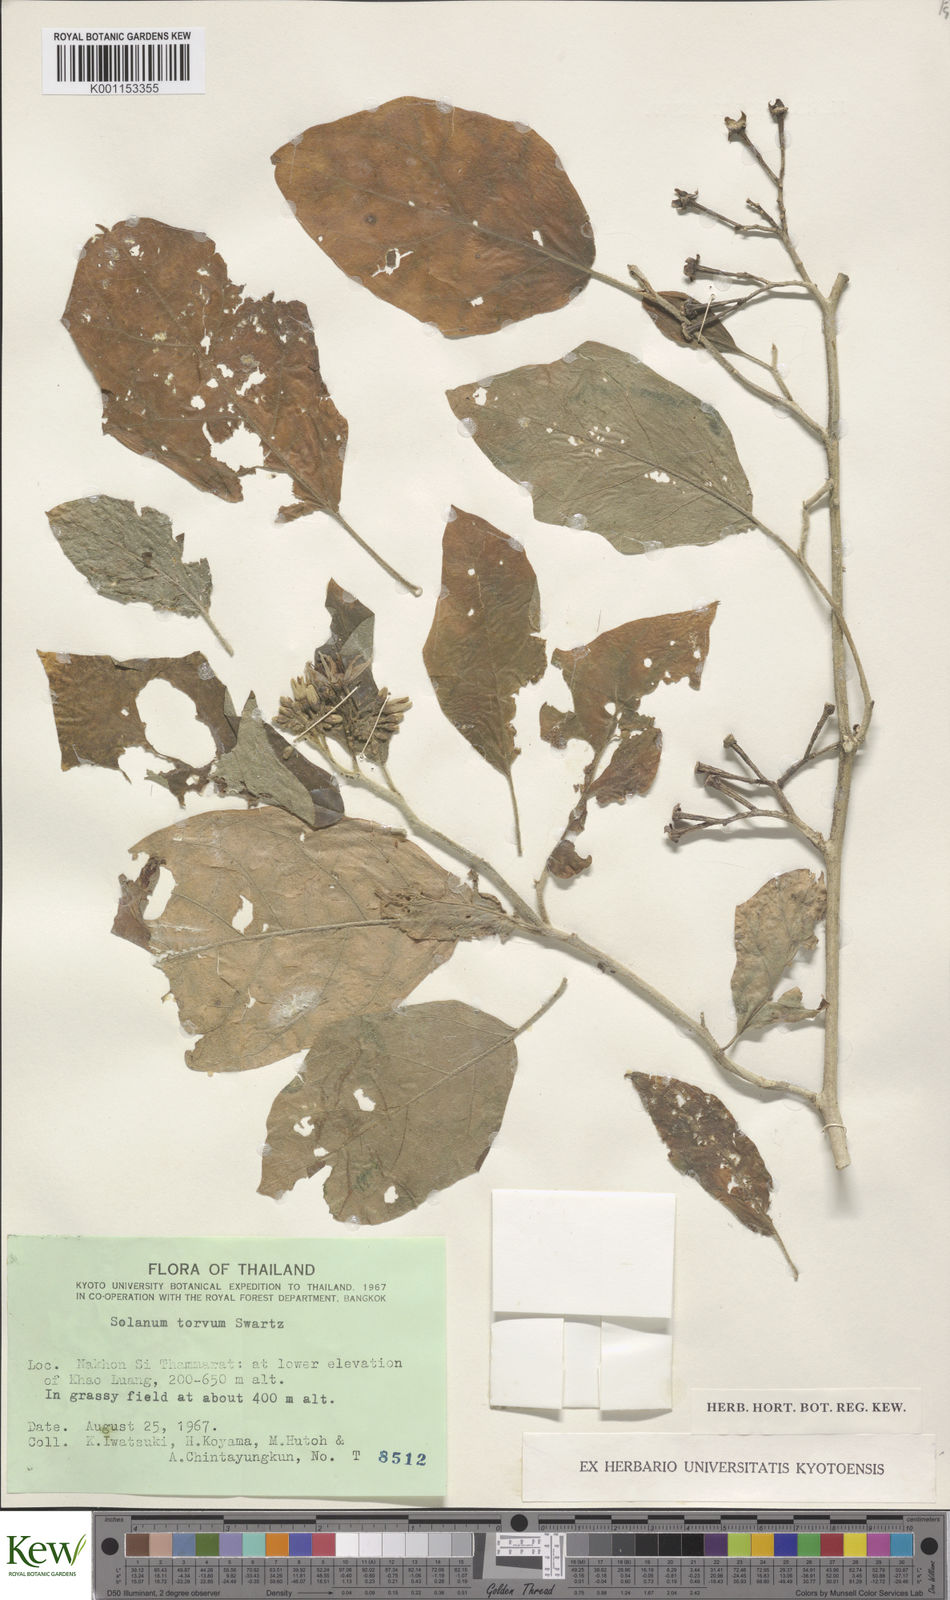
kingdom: Plantae
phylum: Tracheophyta
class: Magnoliopsida
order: Solanales
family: Solanaceae
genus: Solanum
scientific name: Solanum torvum
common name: Turkey berry
